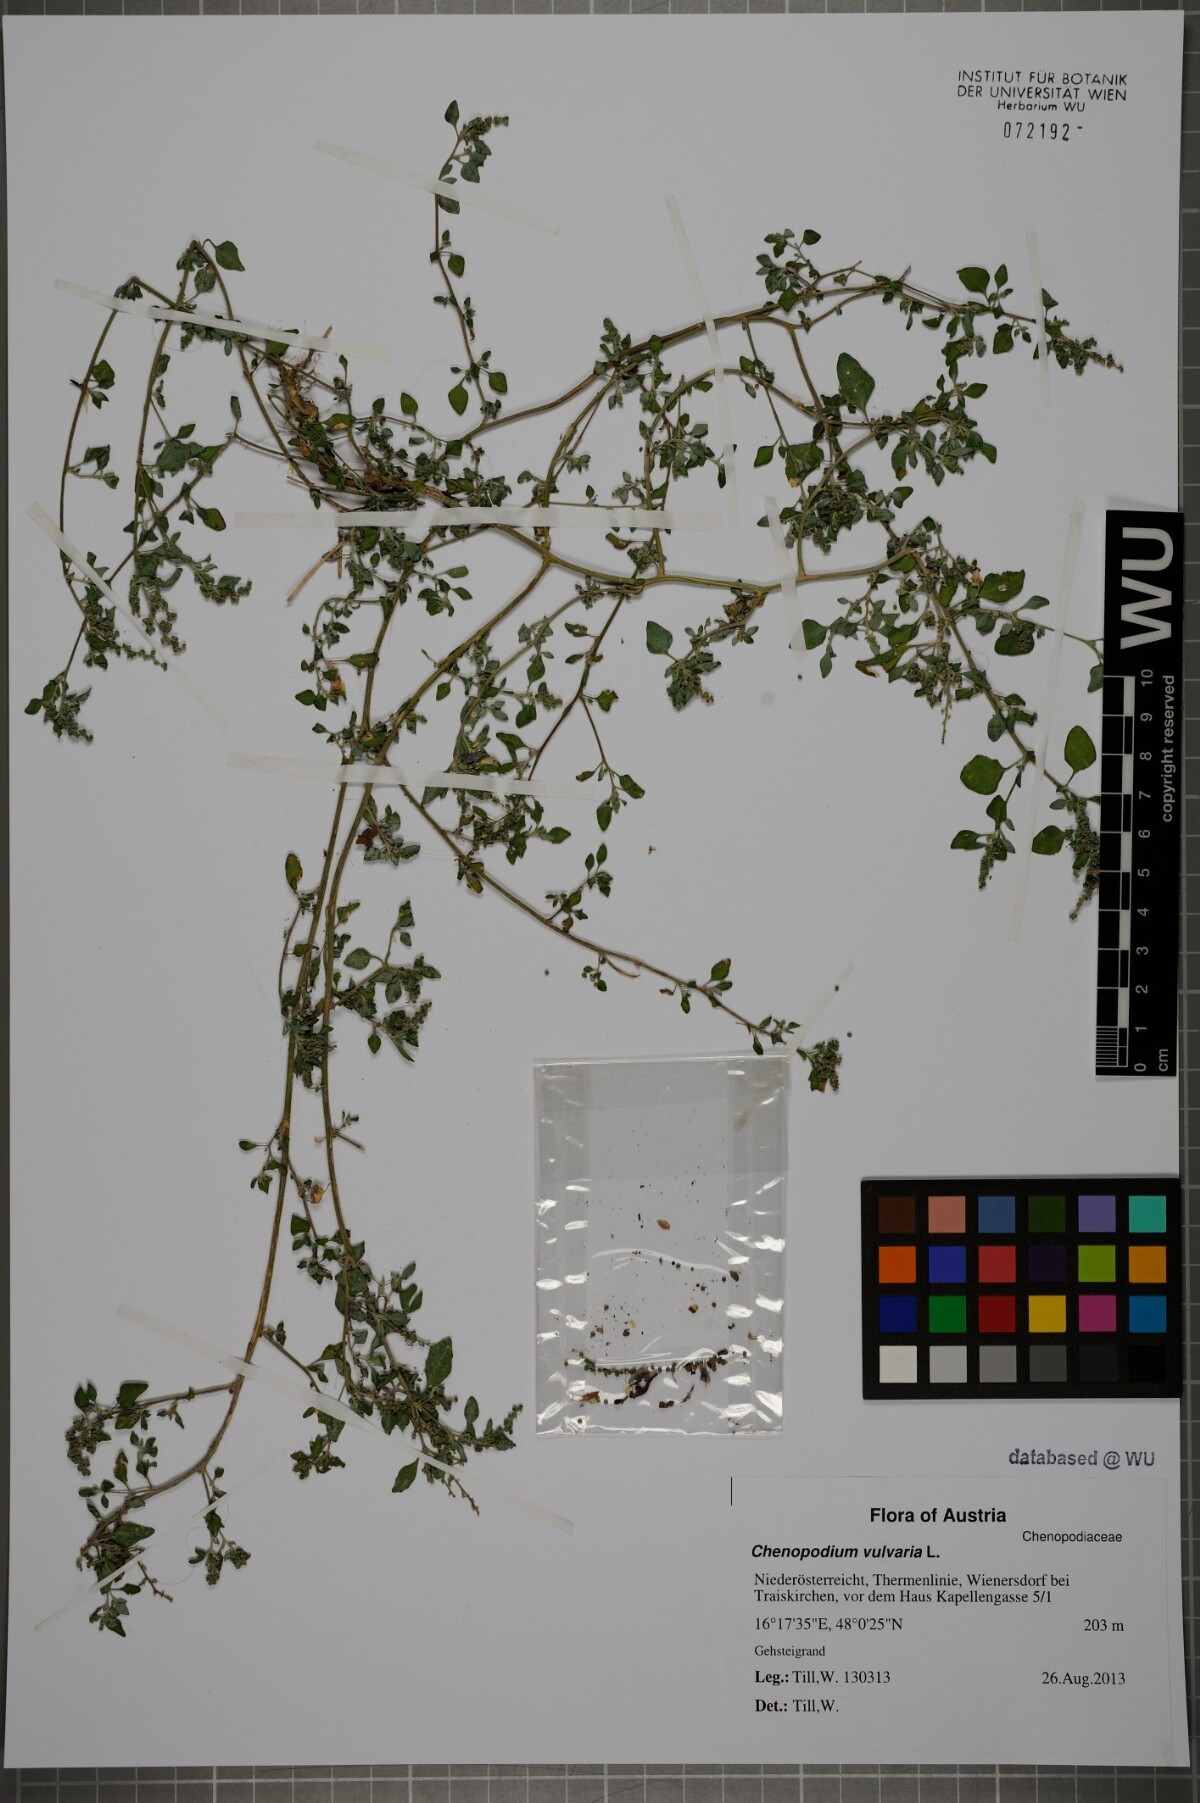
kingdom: Plantae
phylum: Tracheophyta
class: Magnoliopsida
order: Caryophyllales
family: Amaranthaceae
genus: Chenopodium
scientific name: Chenopodium vulvaria
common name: Stinking goosefoot
